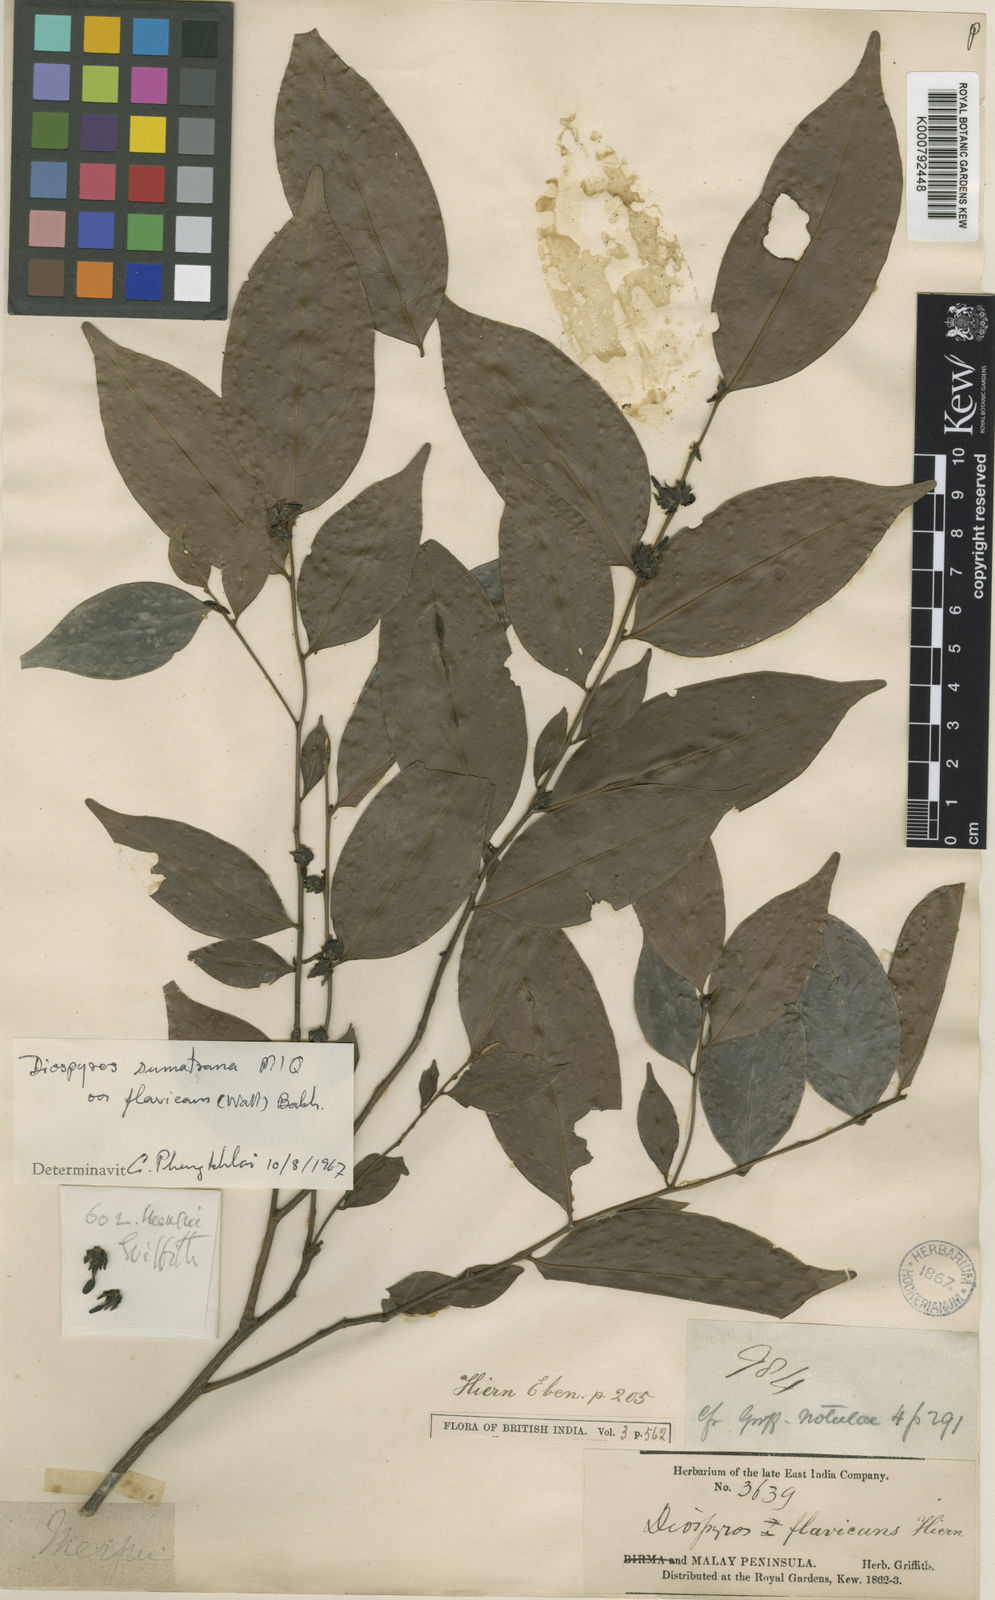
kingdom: Plantae
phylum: Tracheophyta
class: Magnoliopsida
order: Ericales
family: Ebenaceae
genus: Diospyros
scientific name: Diospyros sumatrana
